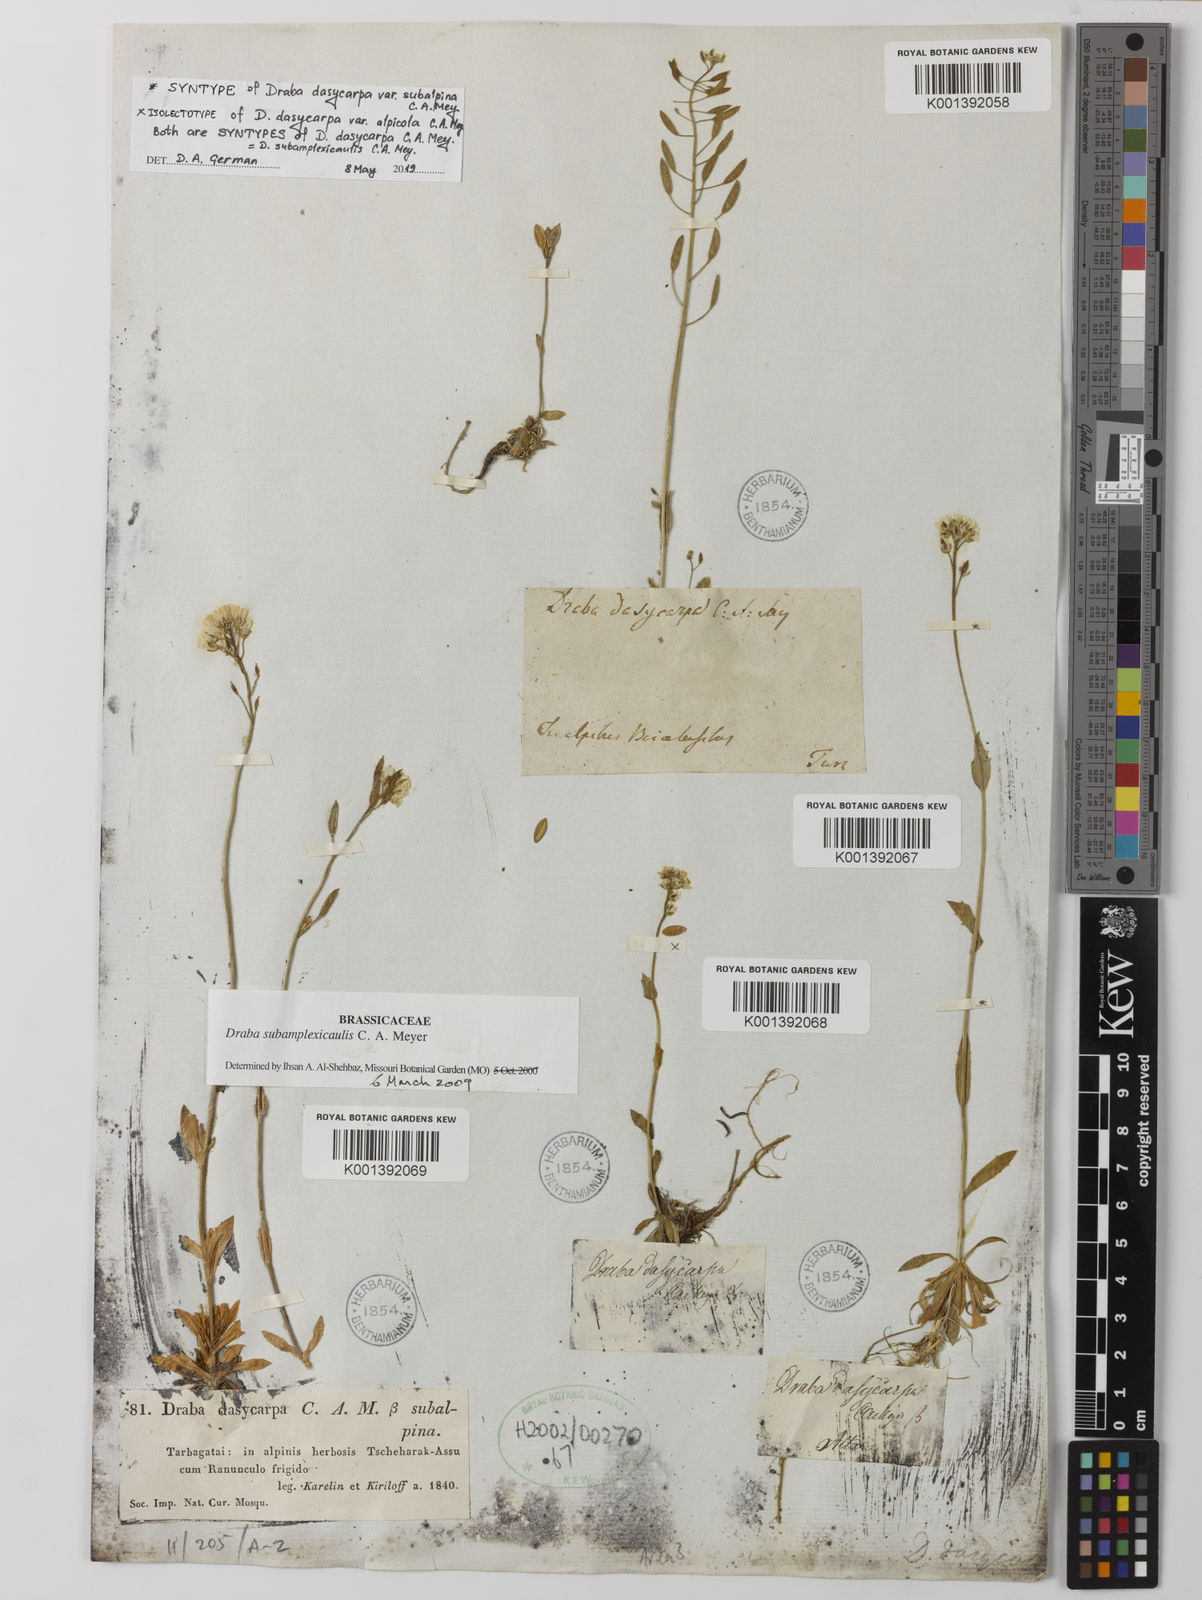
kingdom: Plantae
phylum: Tracheophyta
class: Magnoliopsida
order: Brassicales
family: Brassicaceae
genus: Draba
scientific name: Draba subamplexicaulis
